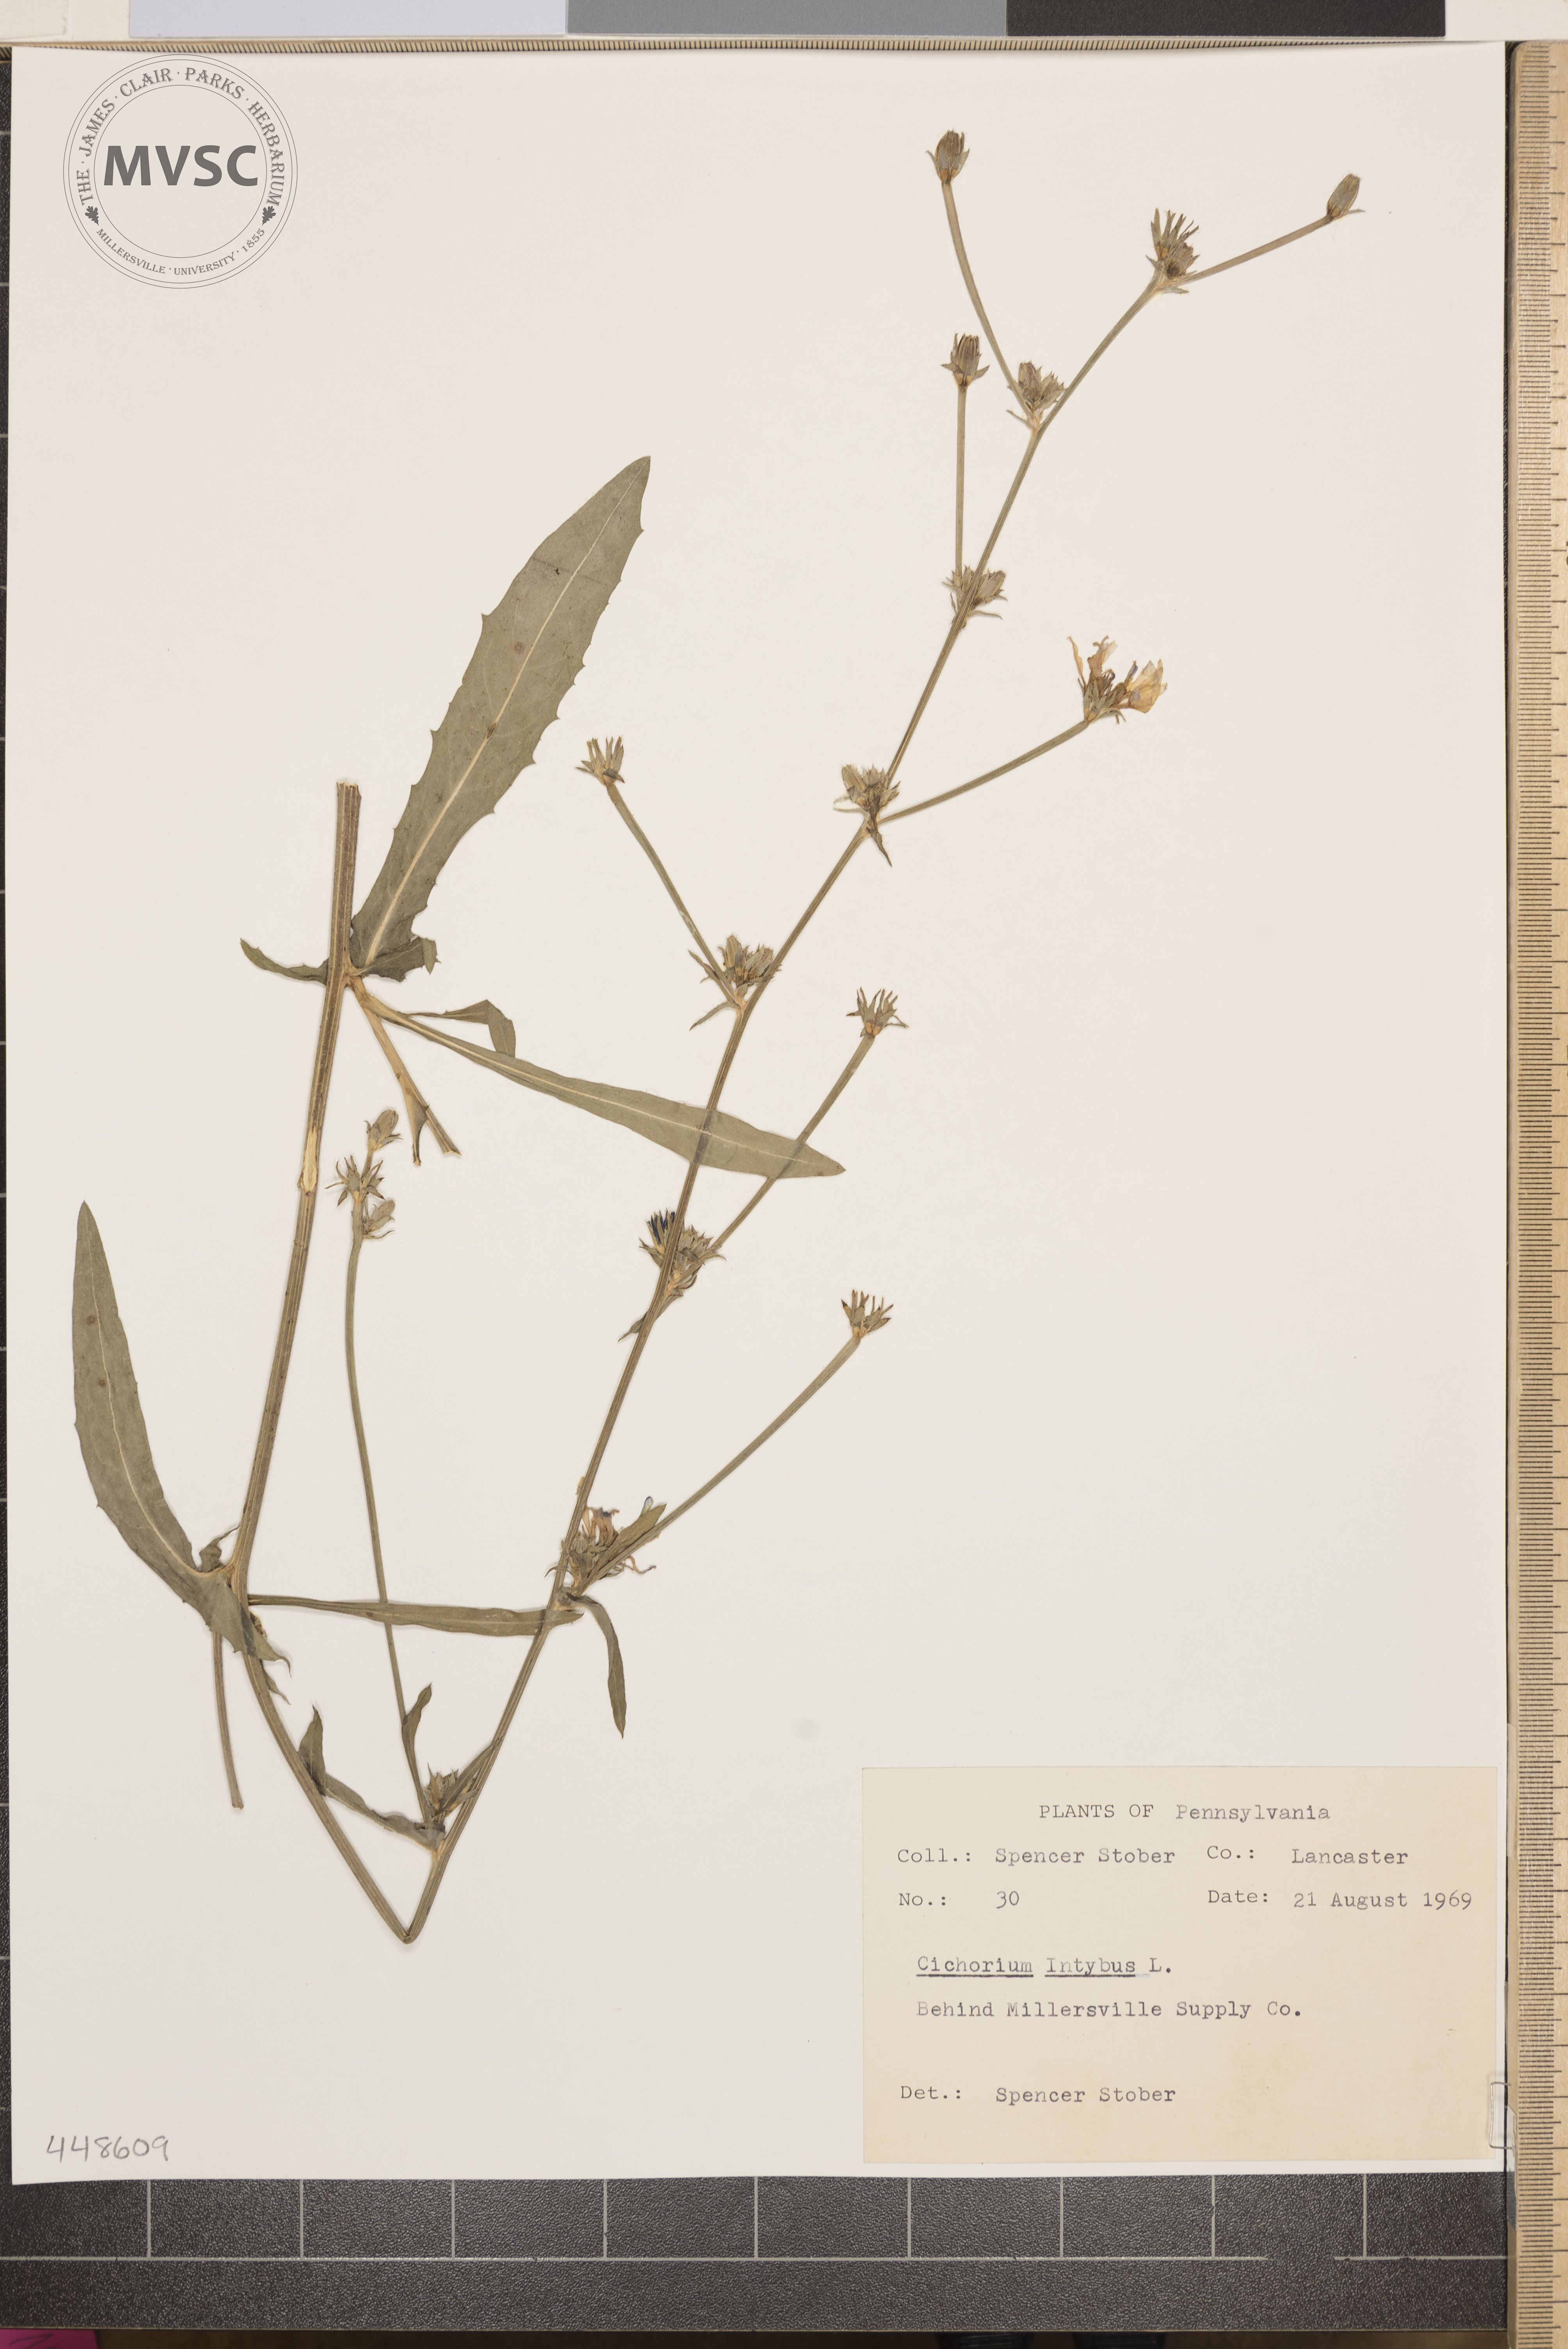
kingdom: Plantae
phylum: Tracheophyta
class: Magnoliopsida
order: Asterales
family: Asteraceae
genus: Cichorium
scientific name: Cichorium intybus
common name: Chicory
